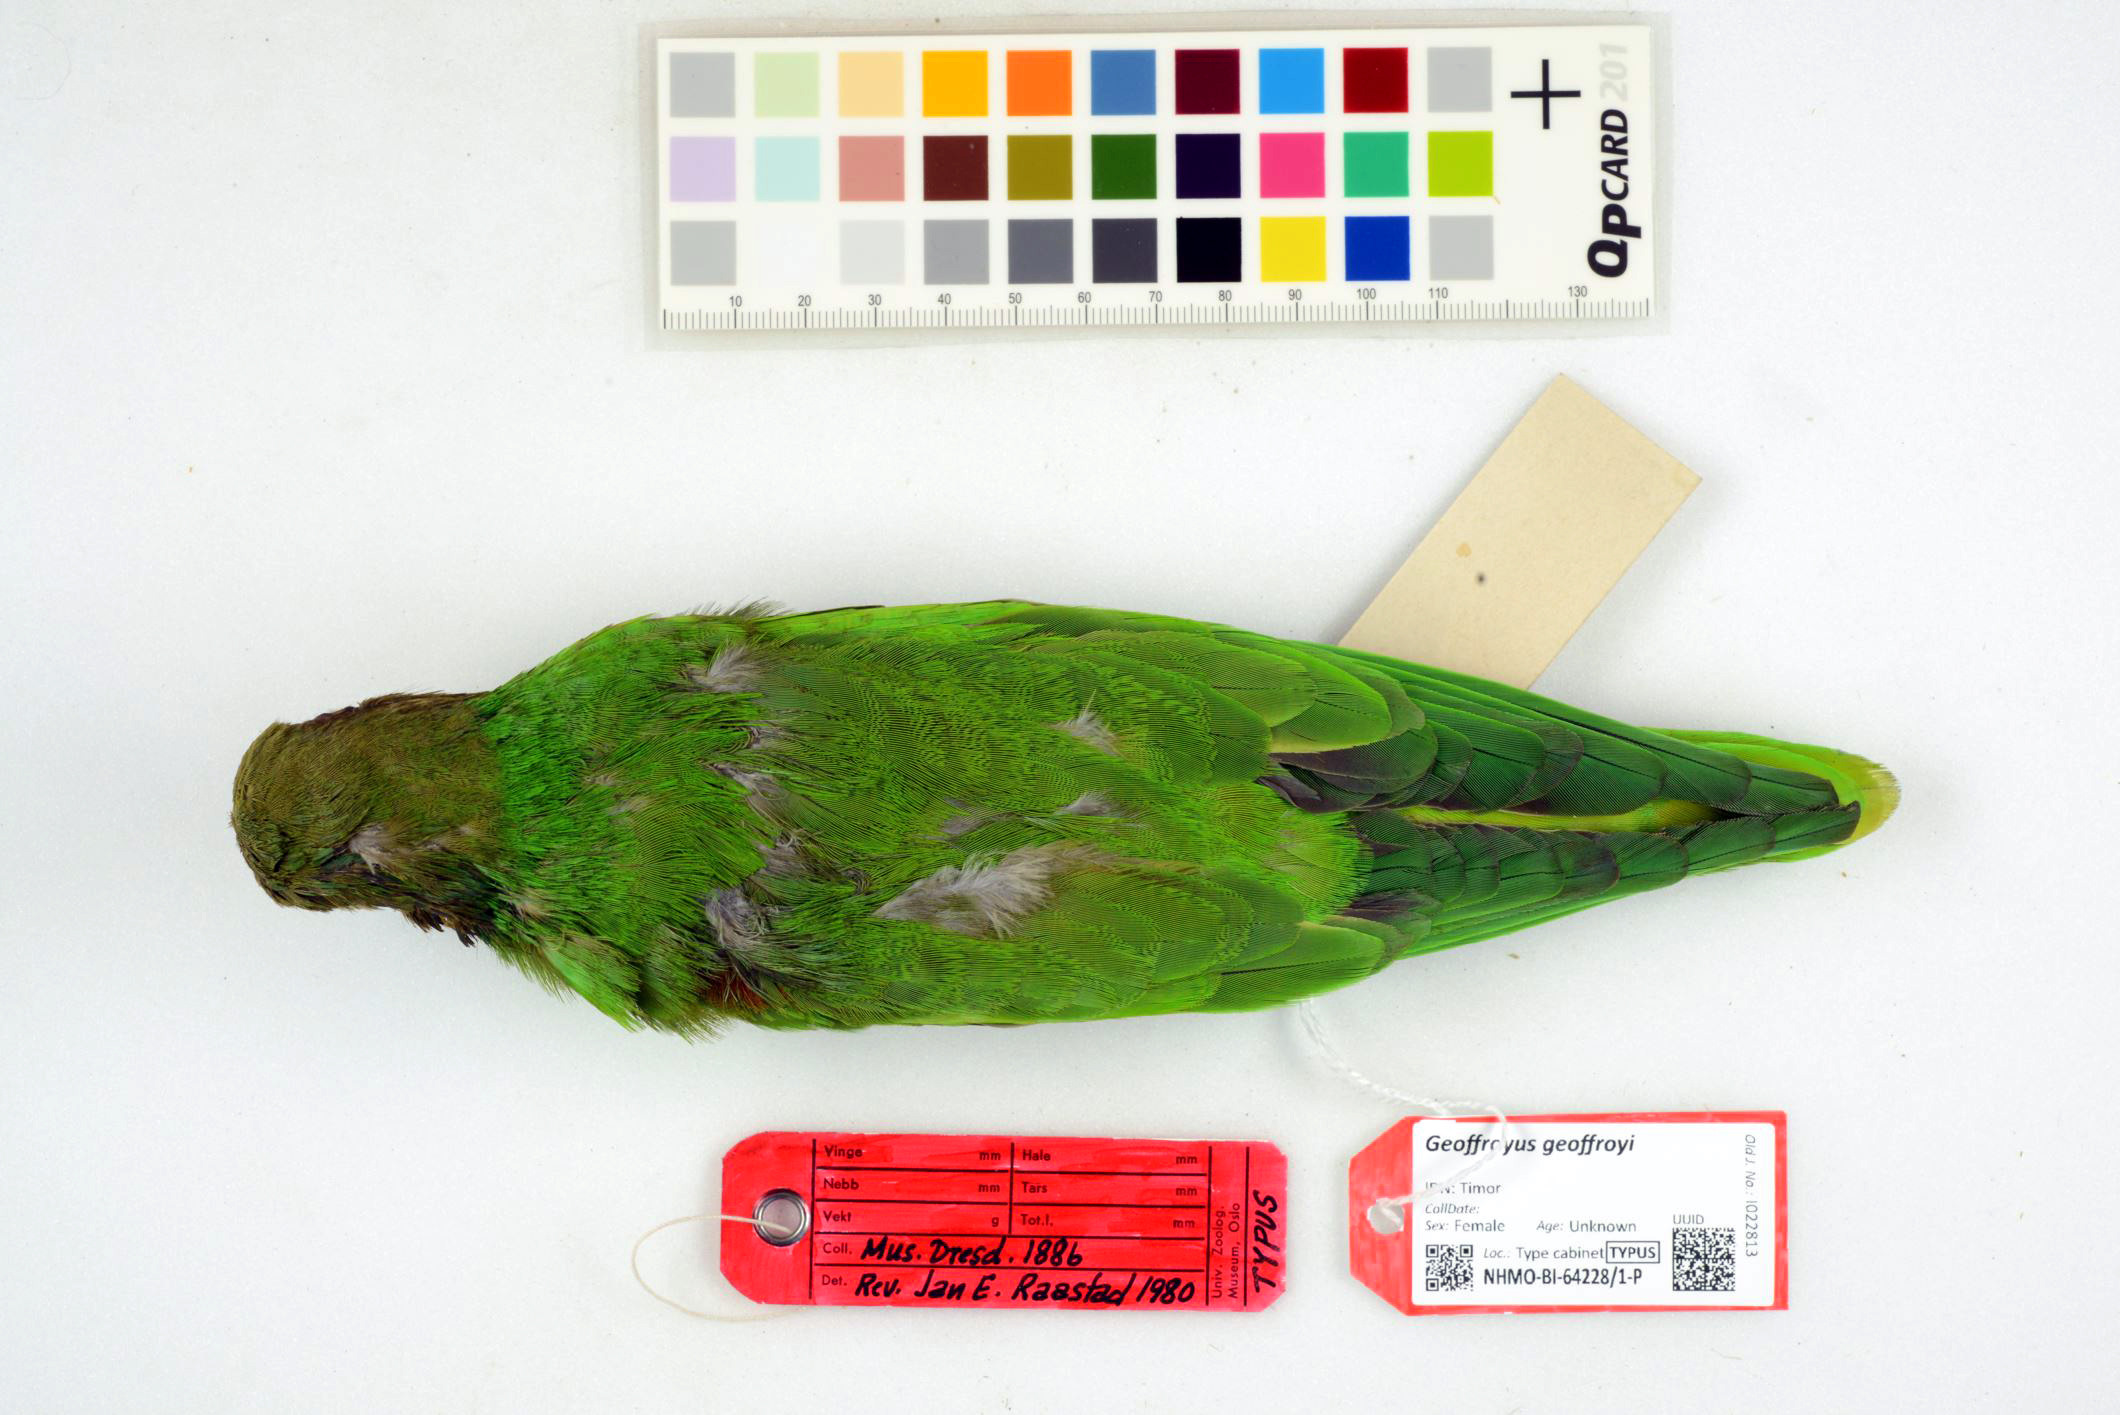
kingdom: Animalia
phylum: Chordata
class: Aves
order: Psittaciformes
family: Psittacidae
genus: Geoffroyus
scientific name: Geoffroyus geoffroyi
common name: Red-cheeked parrot
